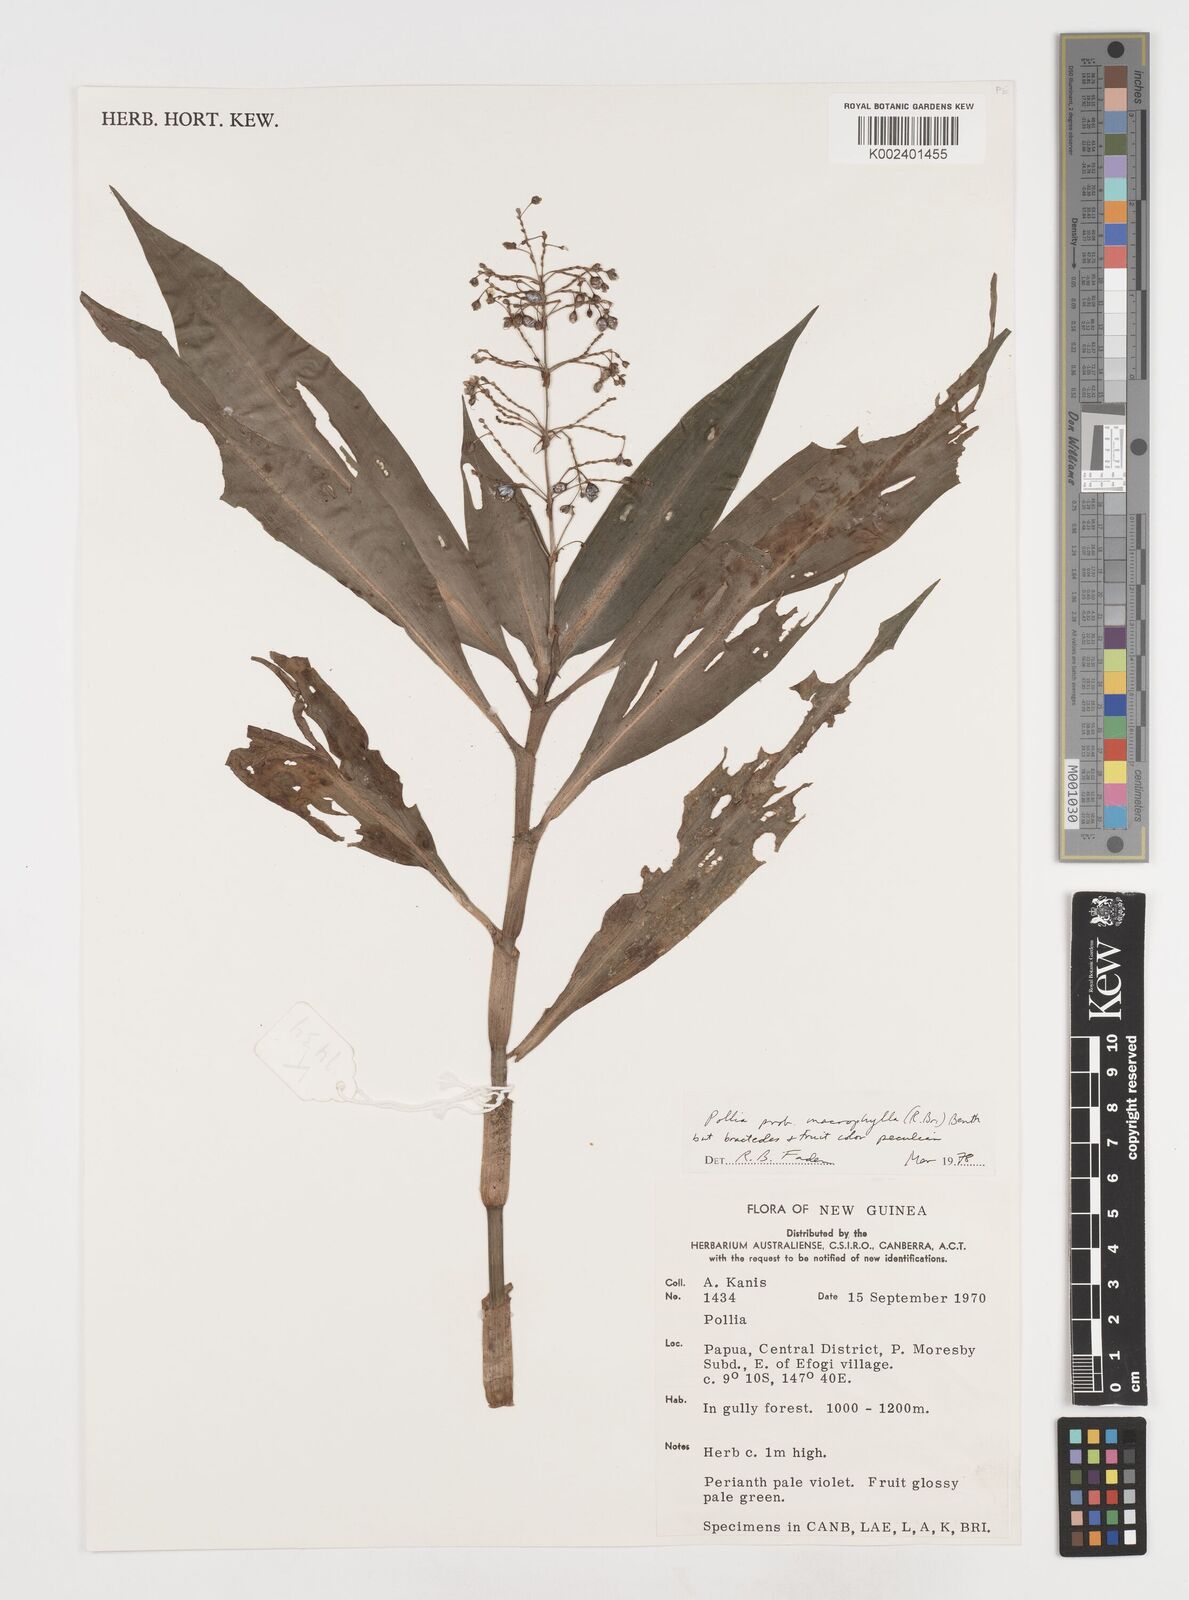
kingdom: Plantae
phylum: Tracheophyta
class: Liliopsida
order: Commelinales
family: Commelinaceae
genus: Pollia
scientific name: Pollia macrophylla
